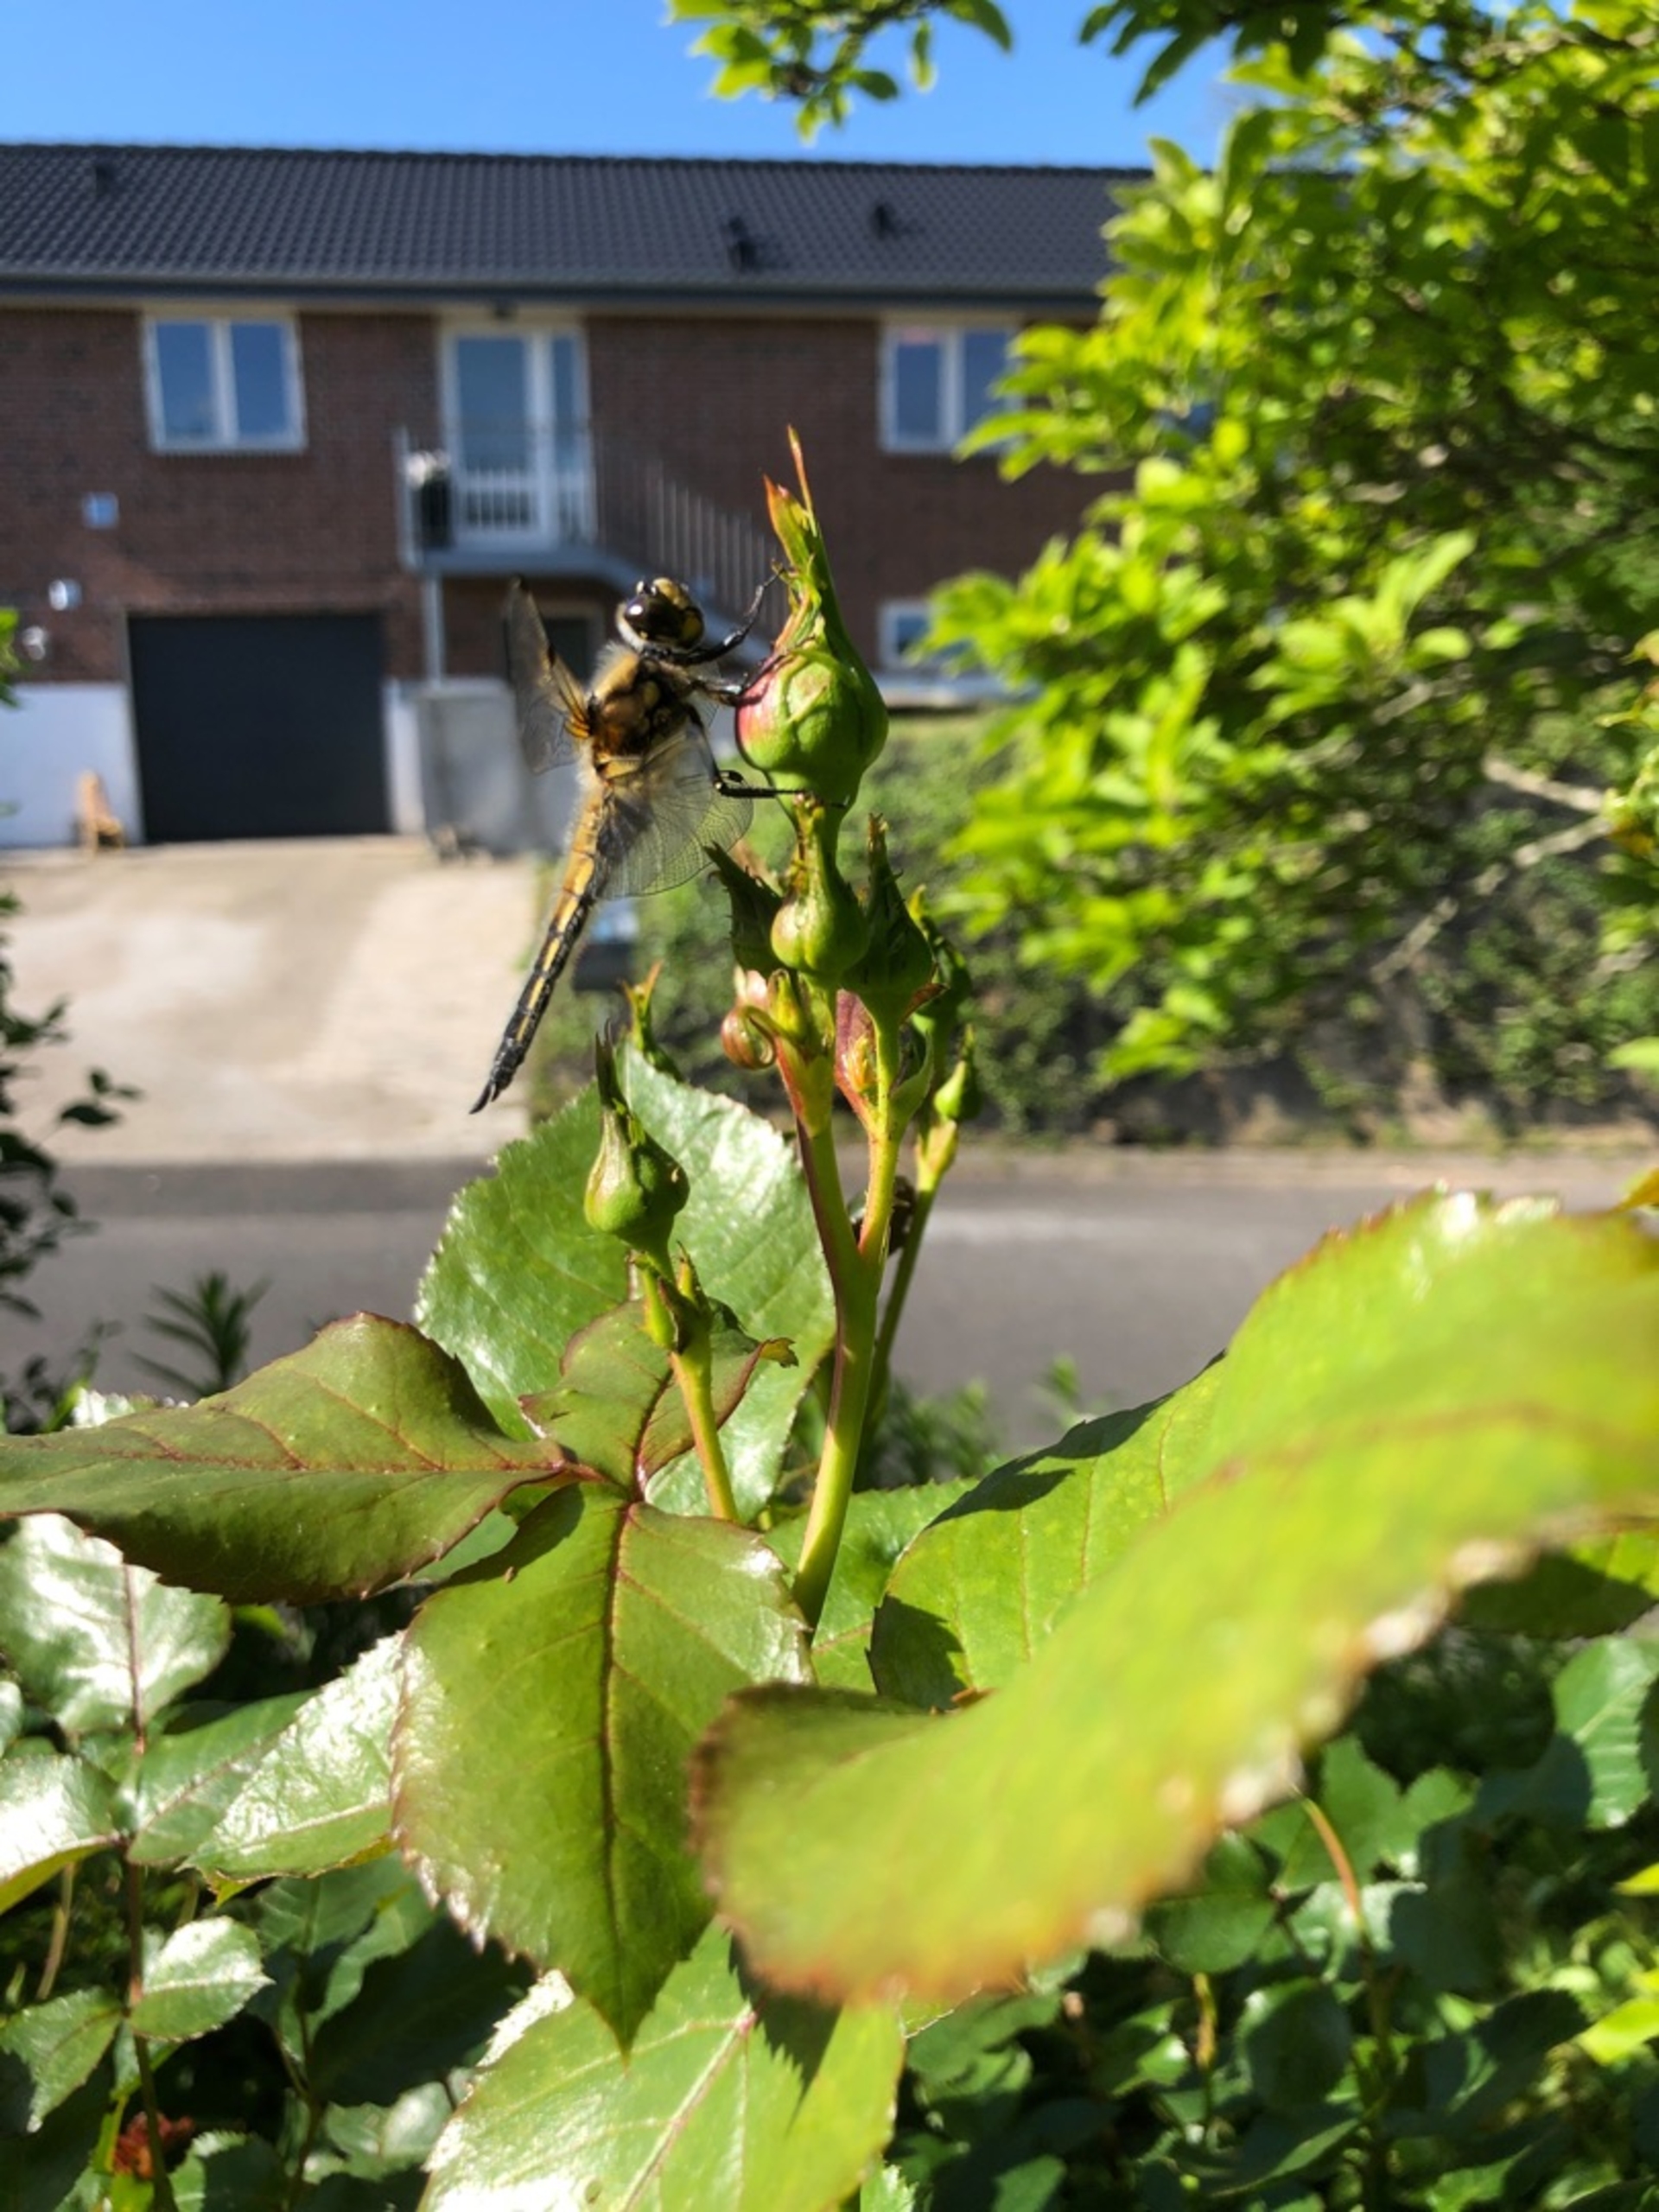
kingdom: Animalia
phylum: Arthropoda
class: Insecta
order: Odonata
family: Libellulidae
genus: Libellula
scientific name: Libellula quadrimaculata
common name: Fireplettet libel
